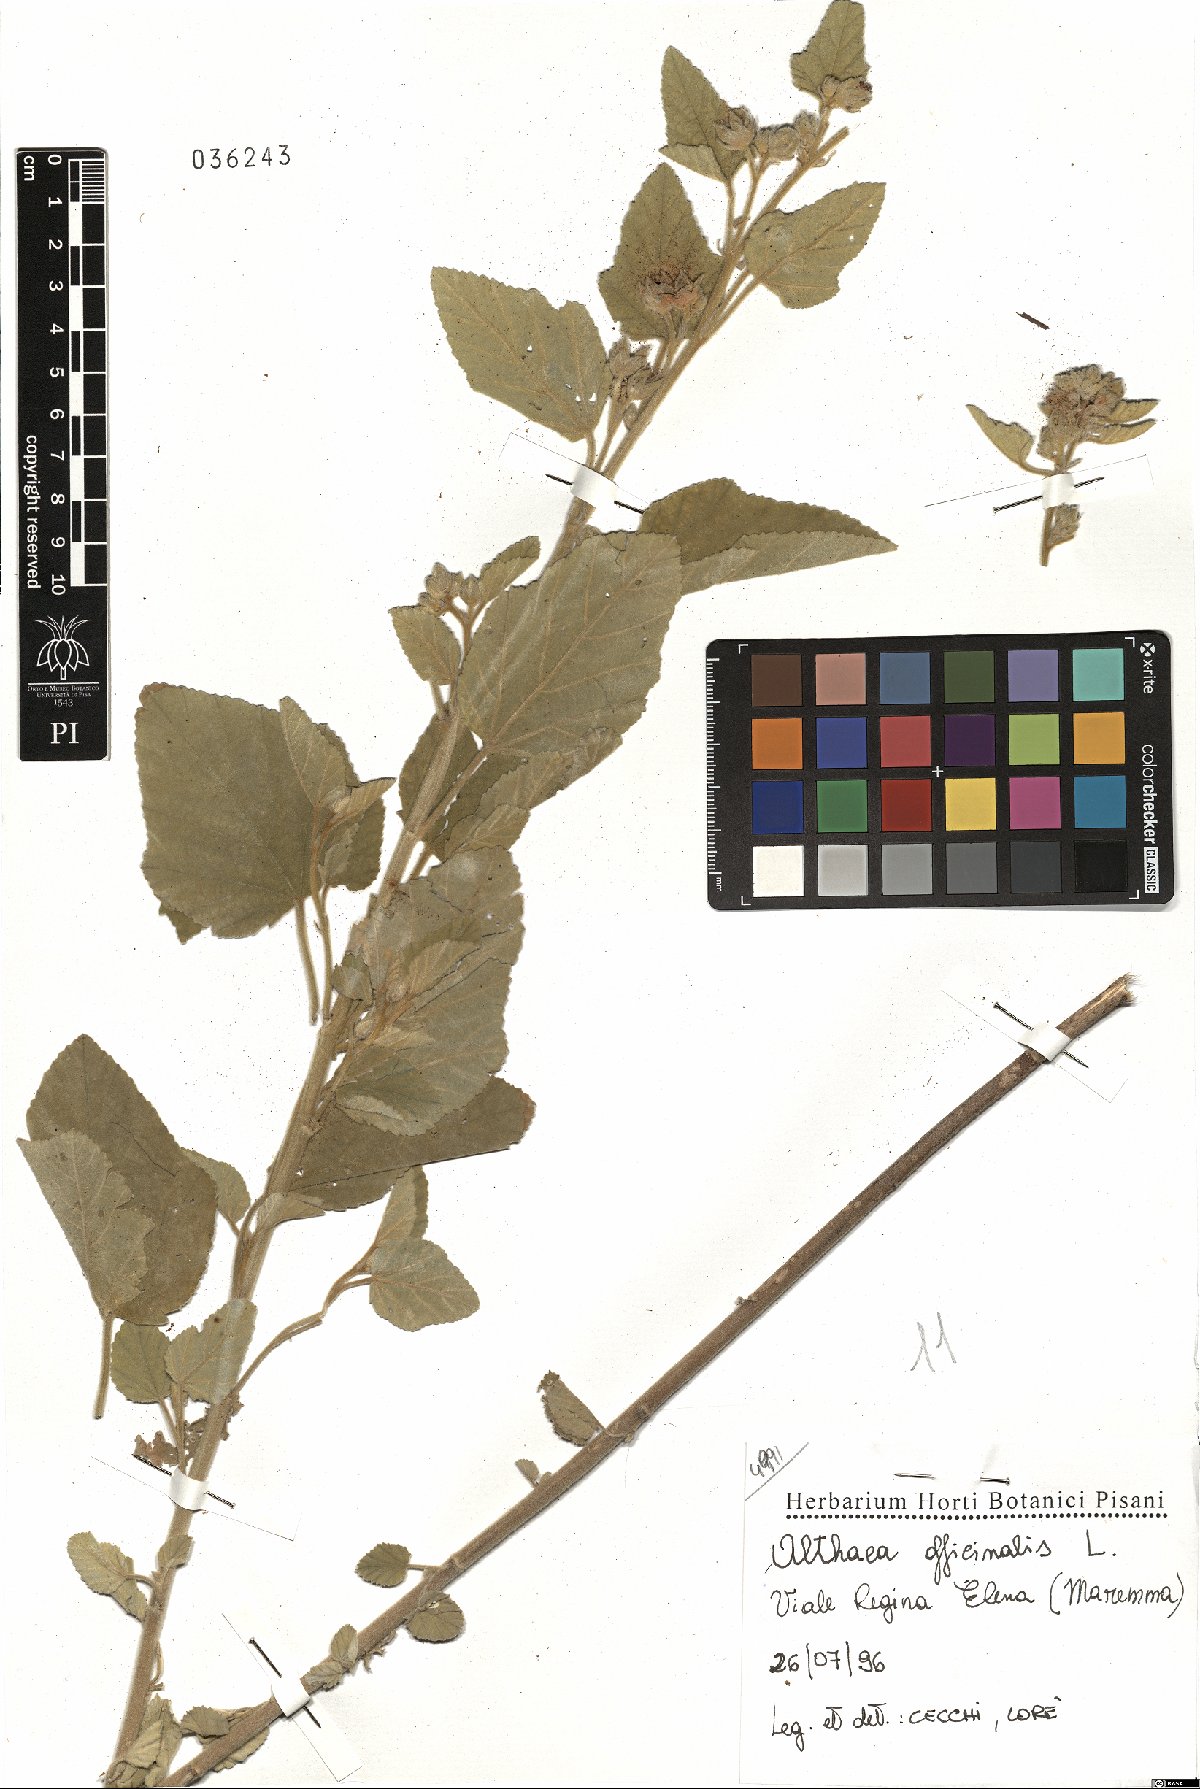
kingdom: Plantae
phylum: Tracheophyta
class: Magnoliopsida
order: Malvales
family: Malvaceae
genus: Althaea
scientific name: Althaea officinalis
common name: Marsh-mallow
